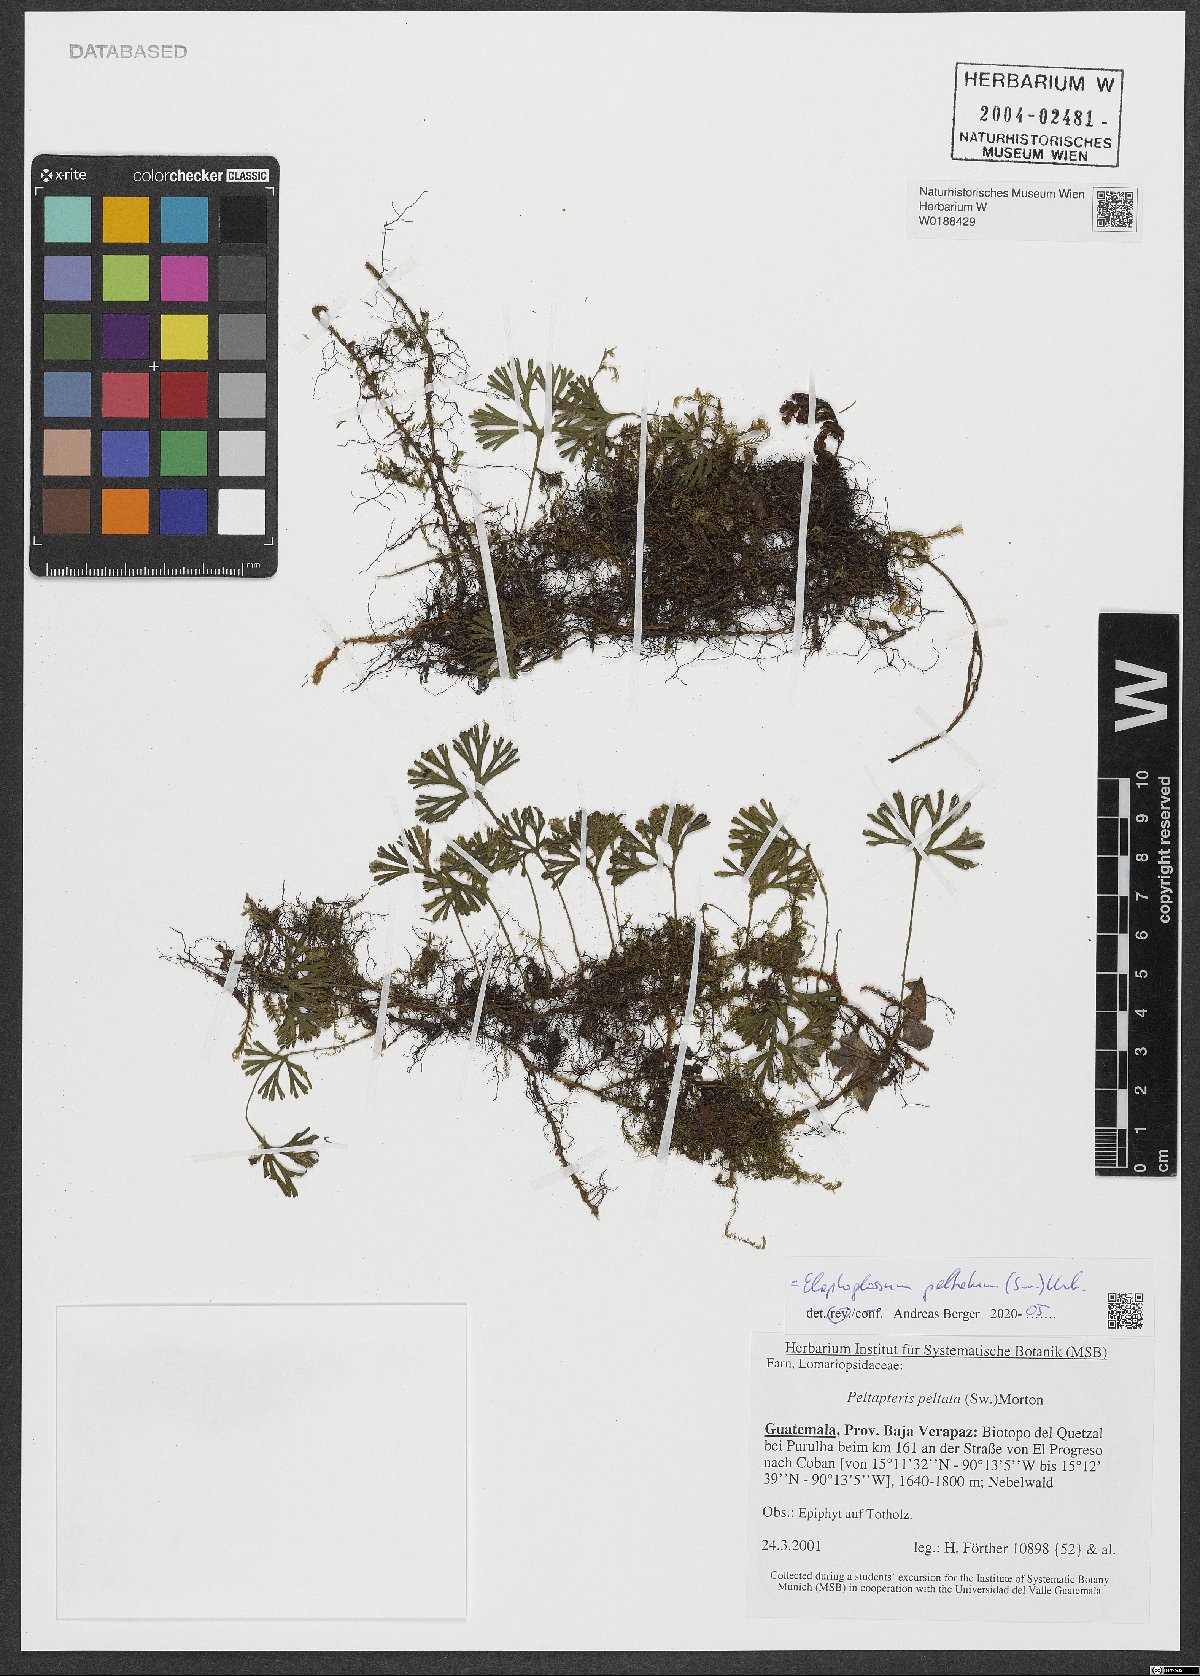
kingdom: Plantae
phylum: Tracheophyta
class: Polypodiopsida
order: Polypodiales
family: Dryopteridaceae
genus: Elaphoglossum
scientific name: Elaphoglossum peltatum
